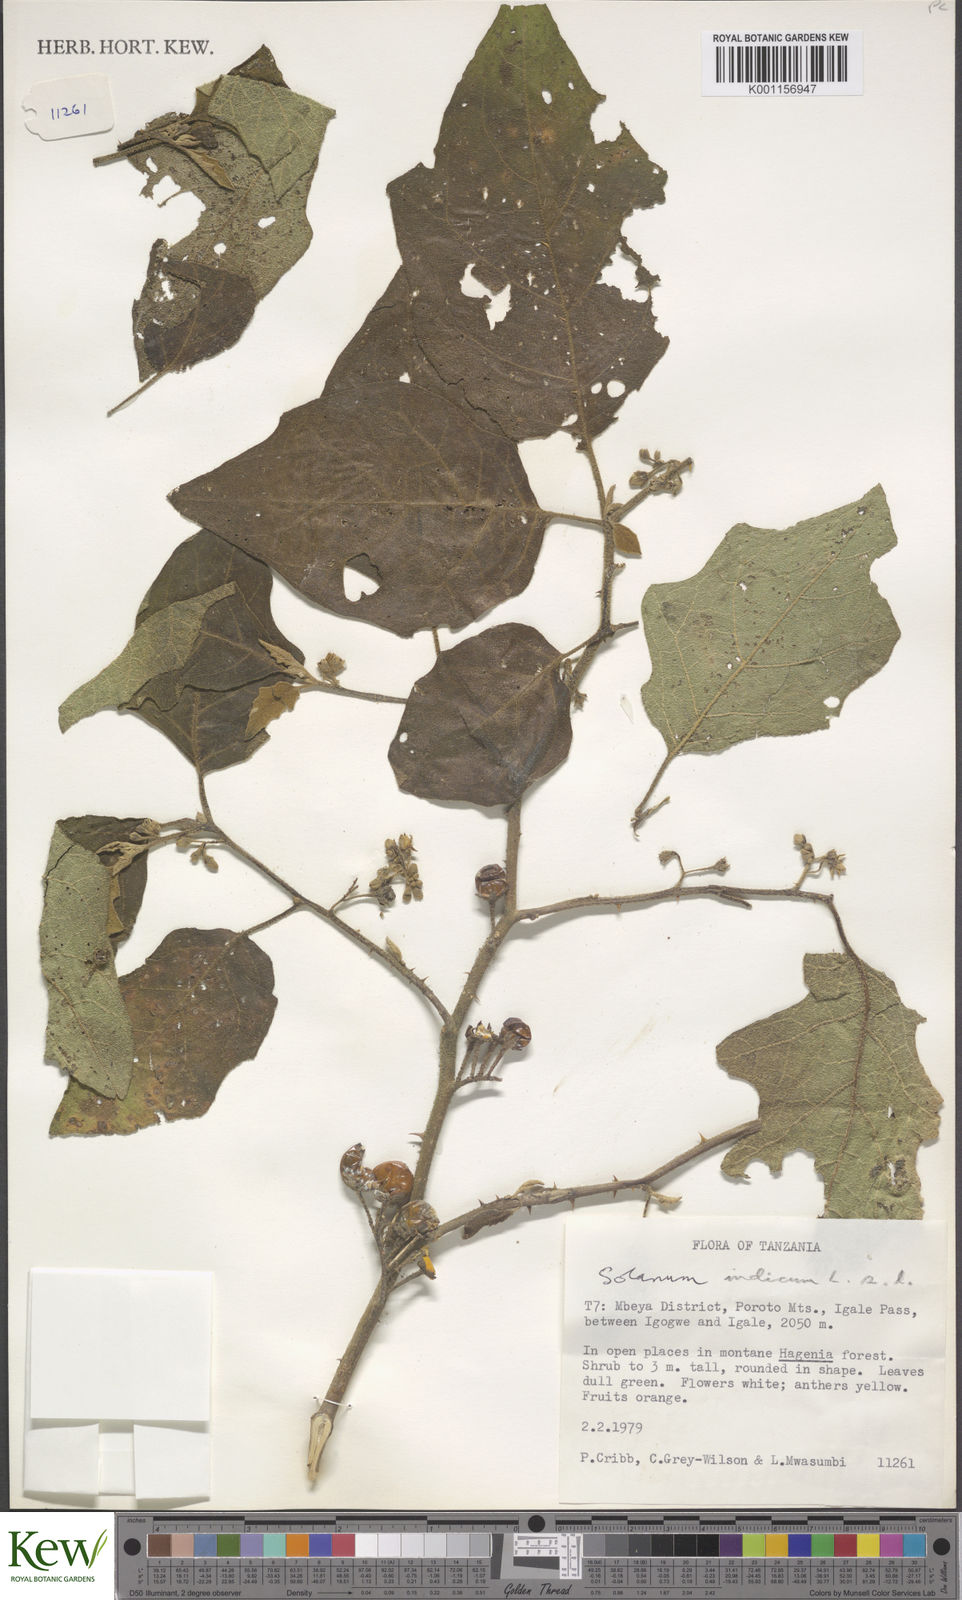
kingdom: Plantae
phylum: Tracheophyta
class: Magnoliopsida
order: Solanales
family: Solanaceae
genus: Solanum
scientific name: Solanum anguivi
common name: Forest bitterberry
